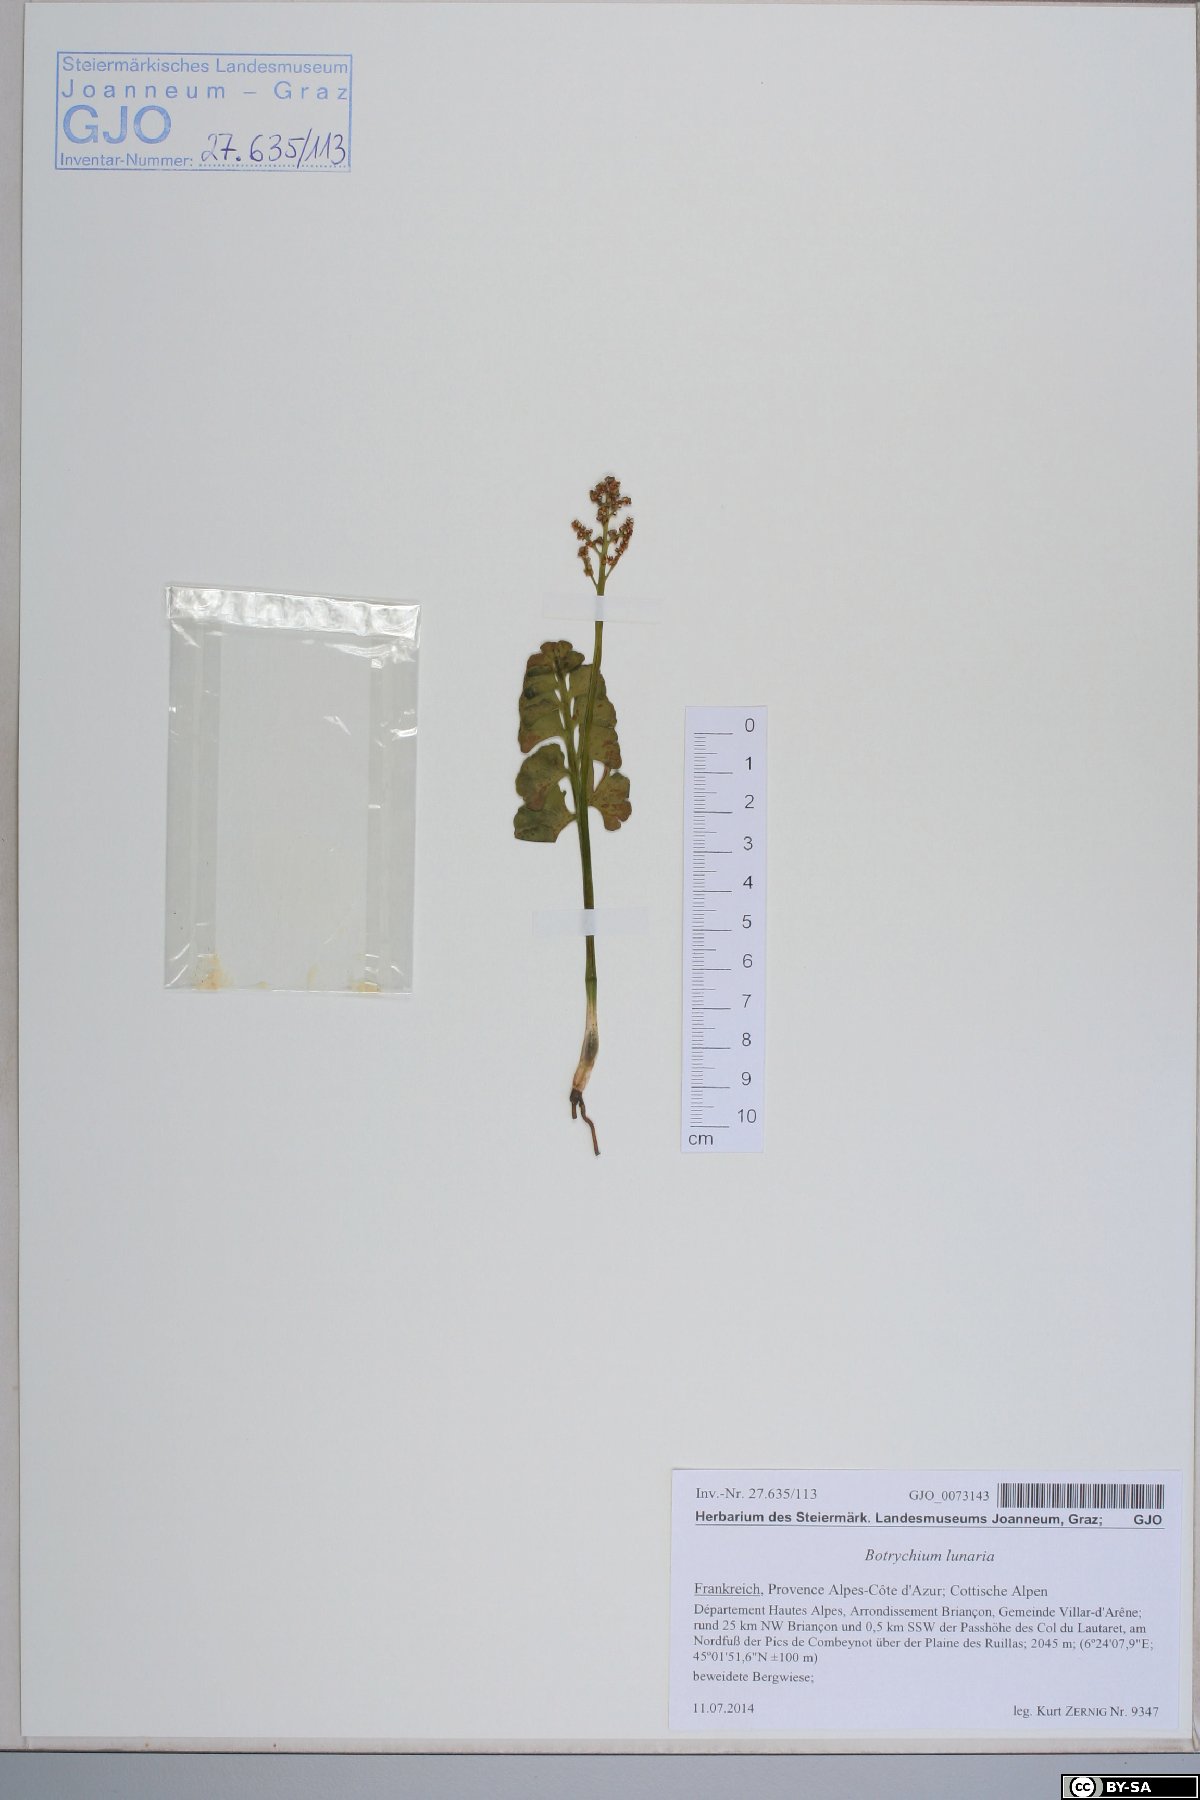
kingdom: Plantae
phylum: Tracheophyta
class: Polypodiopsida
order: Ophioglossales
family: Ophioglossaceae
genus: Botrychium
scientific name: Botrychium lunaria
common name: Moonwort
